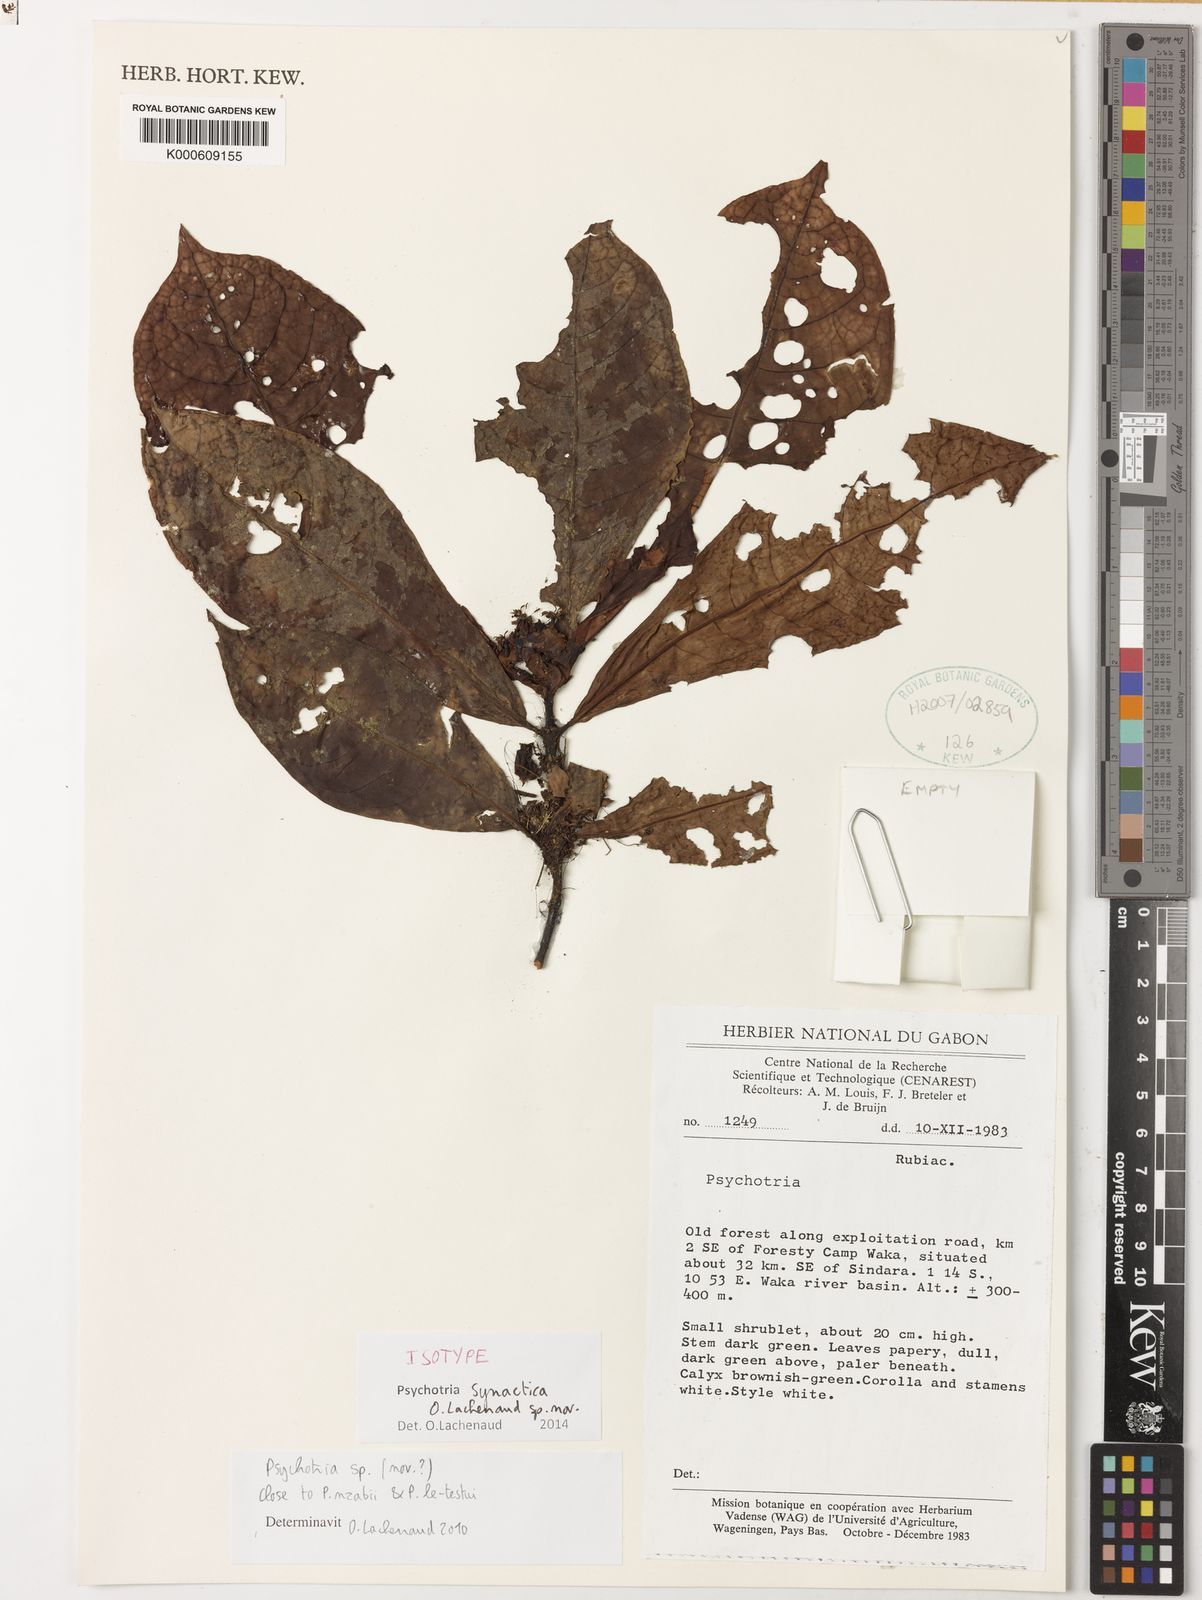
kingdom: Plantae
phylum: Tracheophyta
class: Magnoliopsida
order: Gentianales
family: Rubiaceae
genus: Psychotria
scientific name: Psychotria synactica
